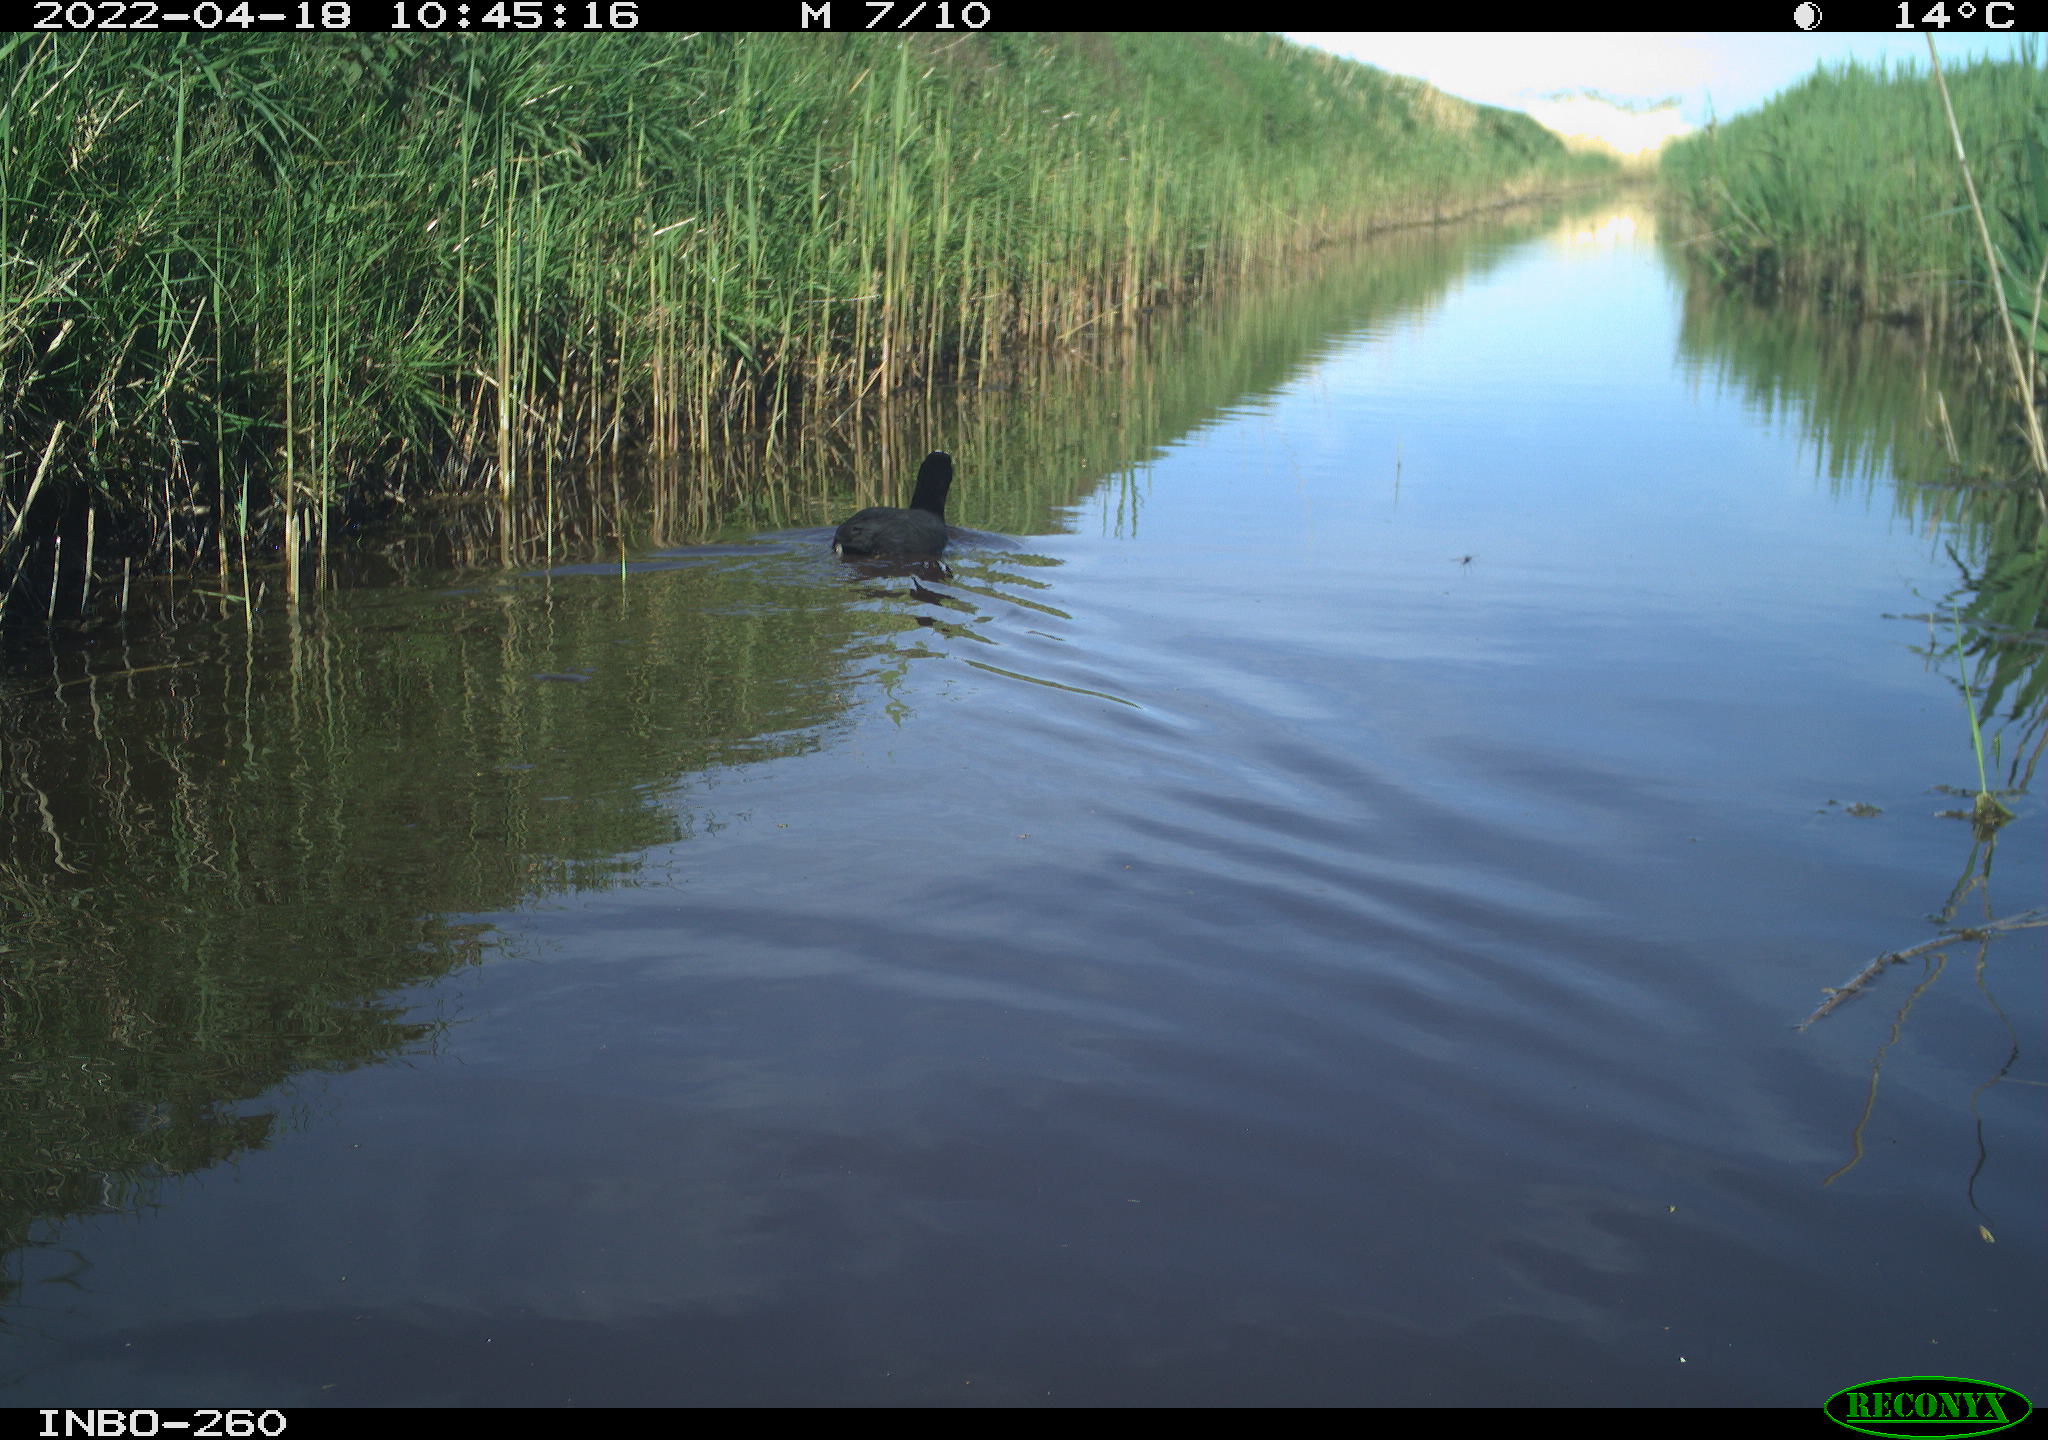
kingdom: Animalia
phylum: Chordata
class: Aves
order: Gruiformes
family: Rallidae
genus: Fulica
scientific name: Fulica atra
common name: Eurasian coot
